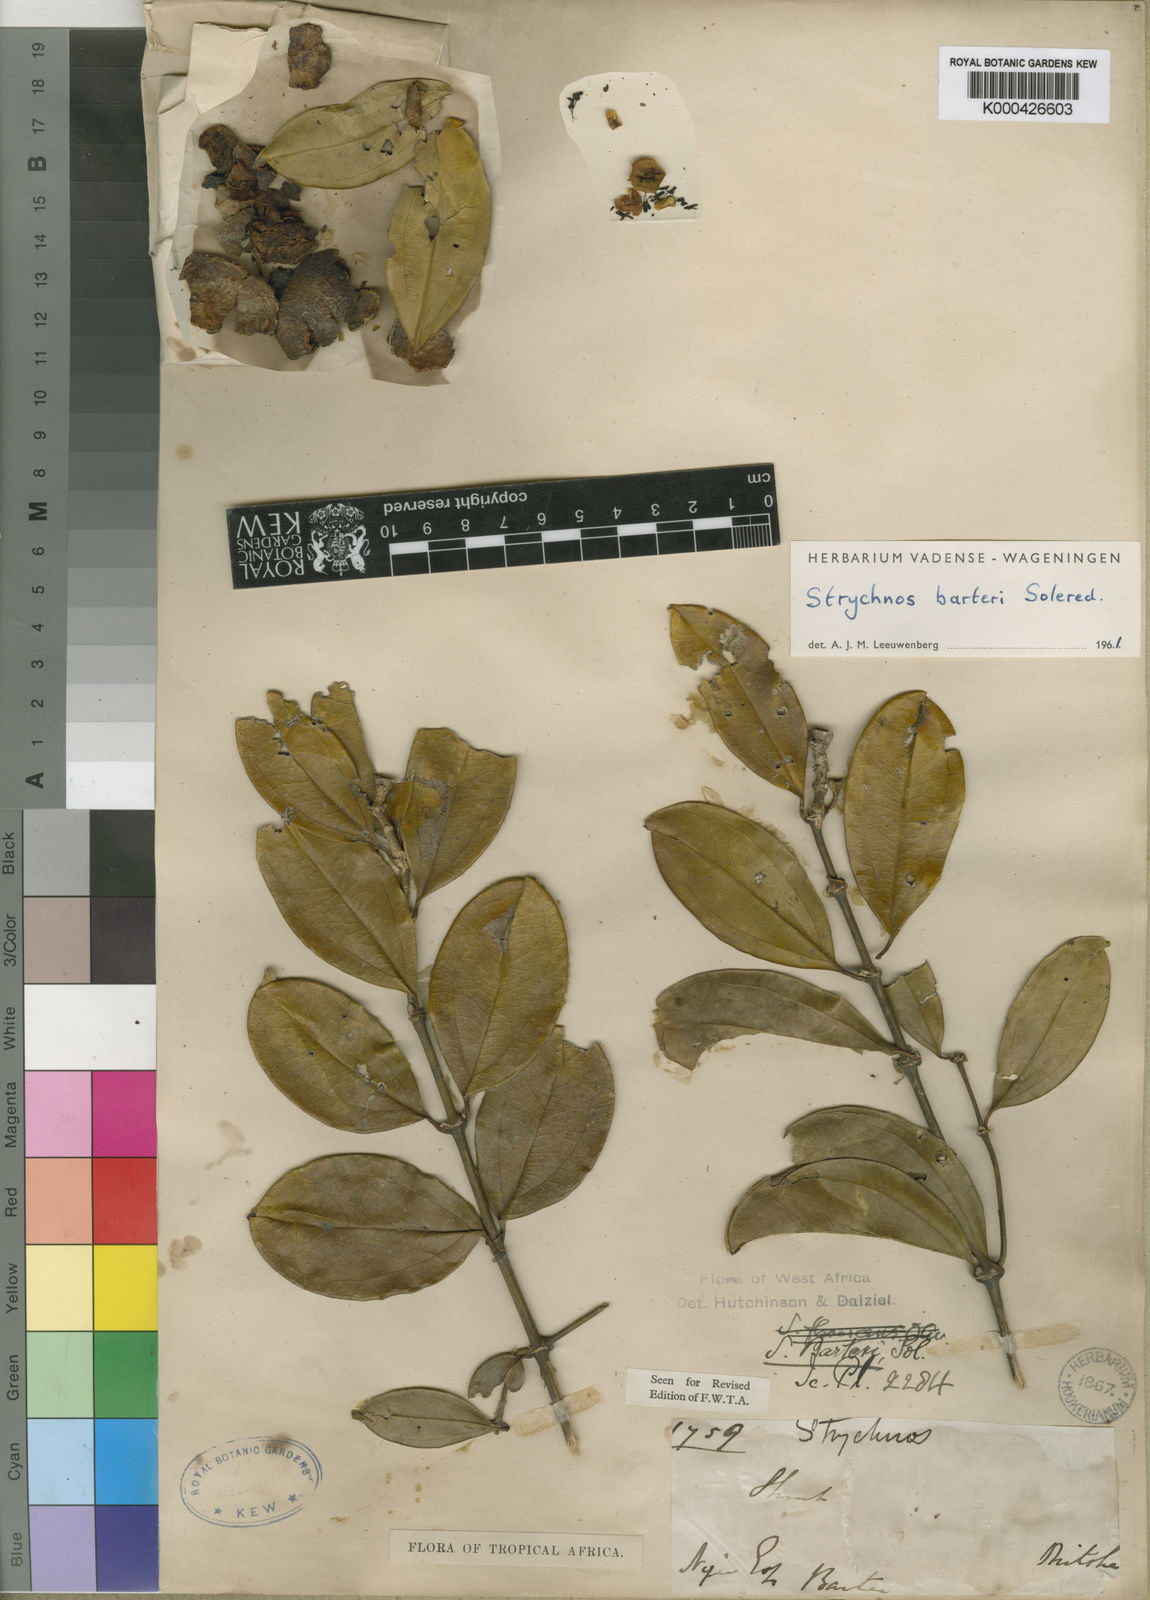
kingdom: Plantae
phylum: Tracheophyta
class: Magnoliopsida
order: Gentianales
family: Loganiaceae
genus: Strychnos
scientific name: Strychnos barteri
